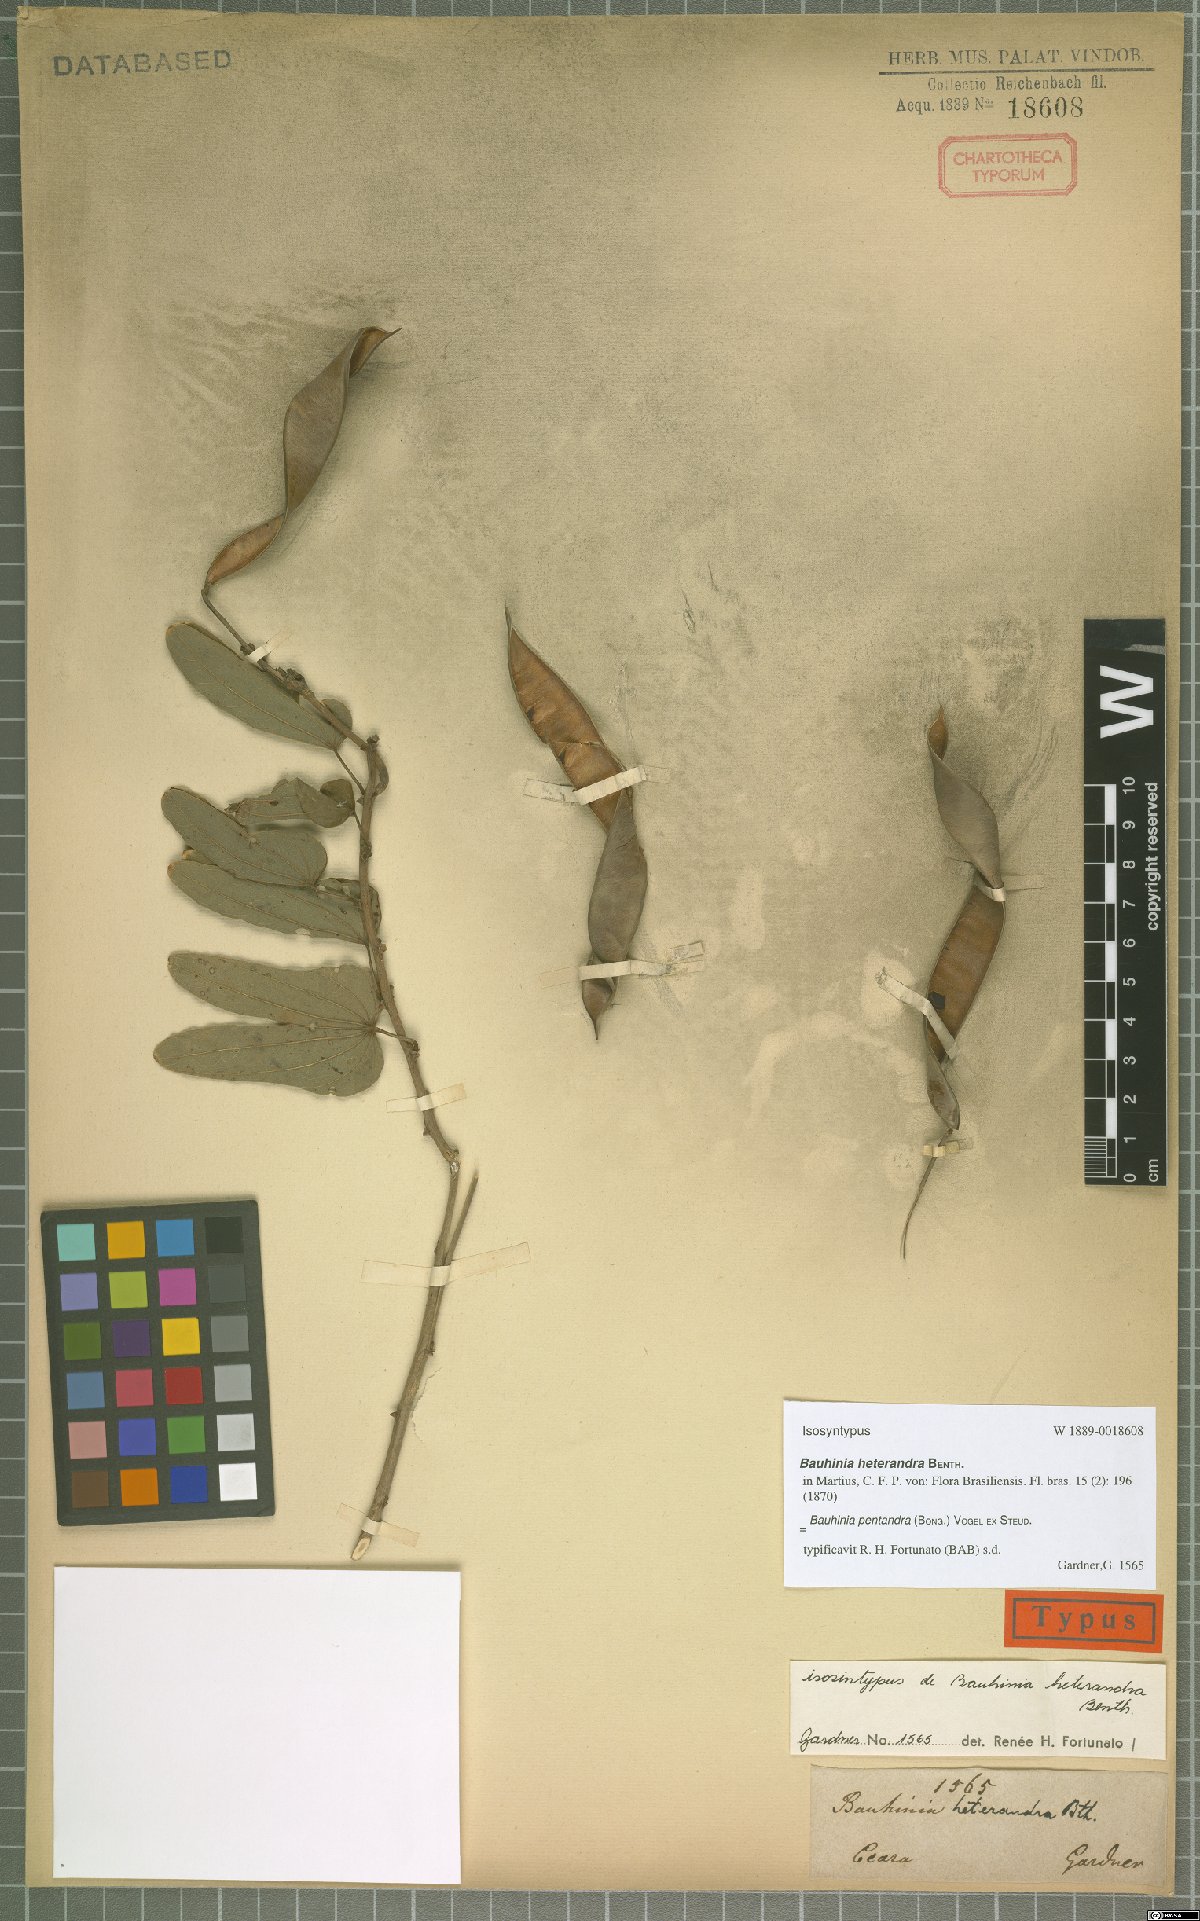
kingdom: Plantae
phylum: Tracheophyta
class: Magnoliopsida
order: Fabales
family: Fabaceae
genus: Bauhinia
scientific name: Bauhinia pentandra
